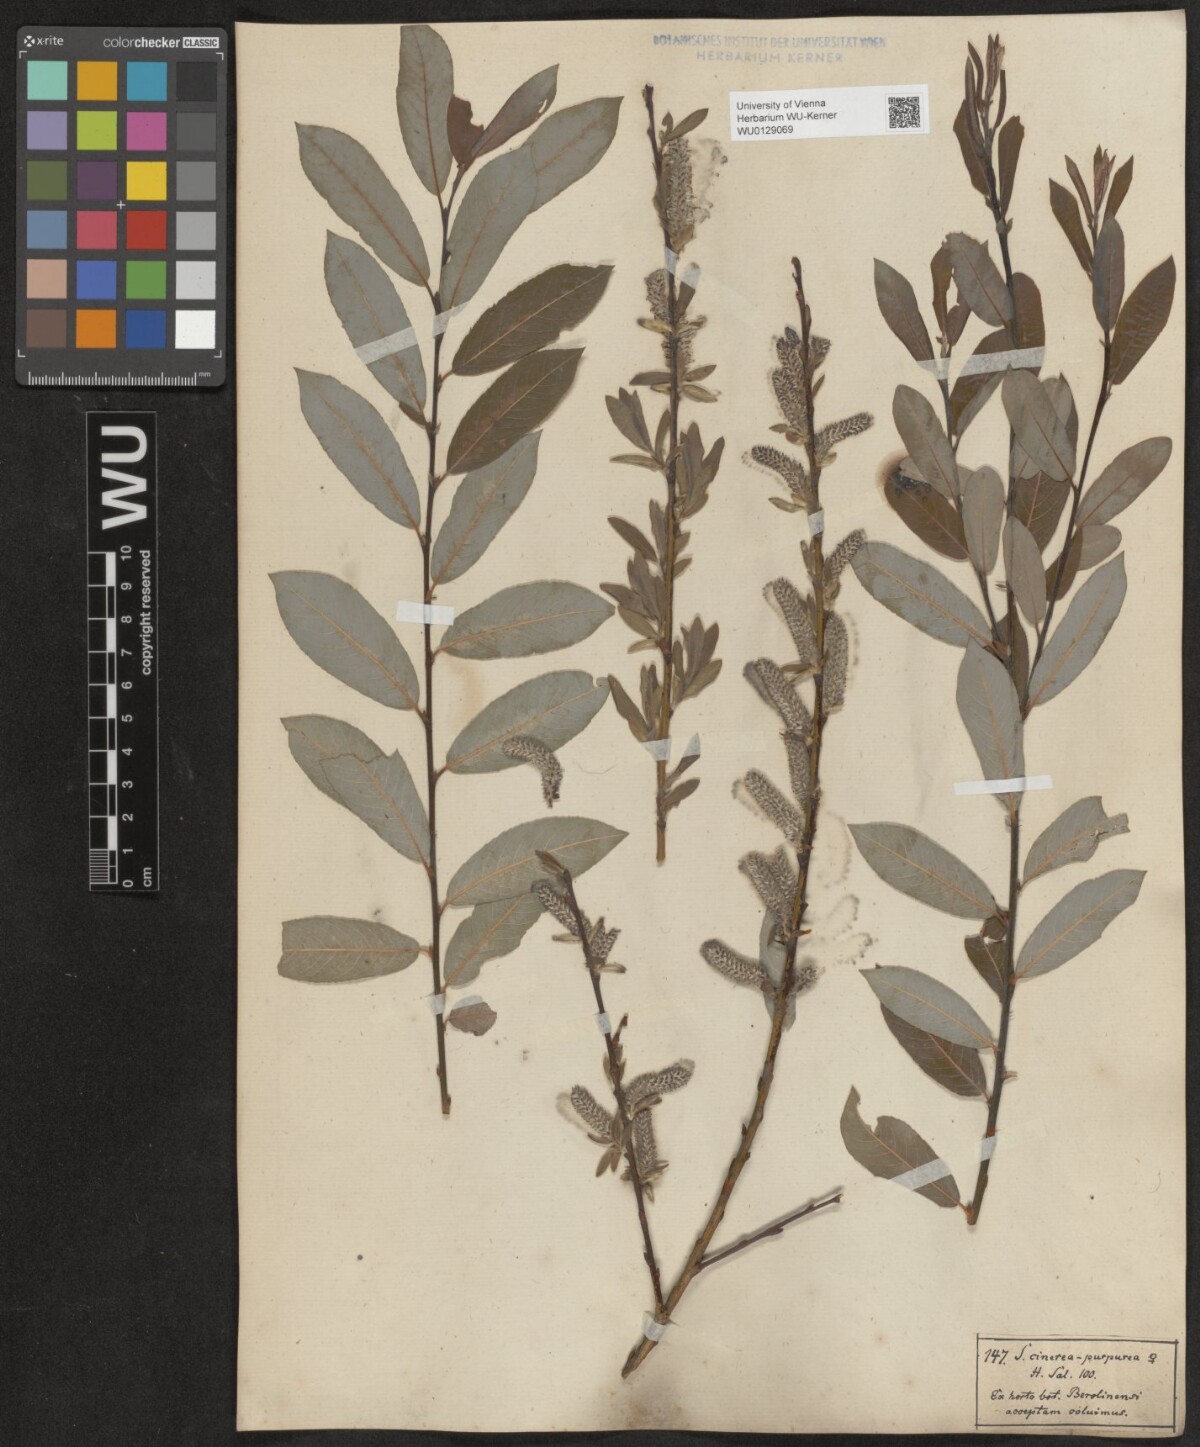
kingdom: Plantae
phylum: Tracheophyta
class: Magnoliopsida
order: Malpighiales
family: Salicaceae
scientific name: Salicaceae
